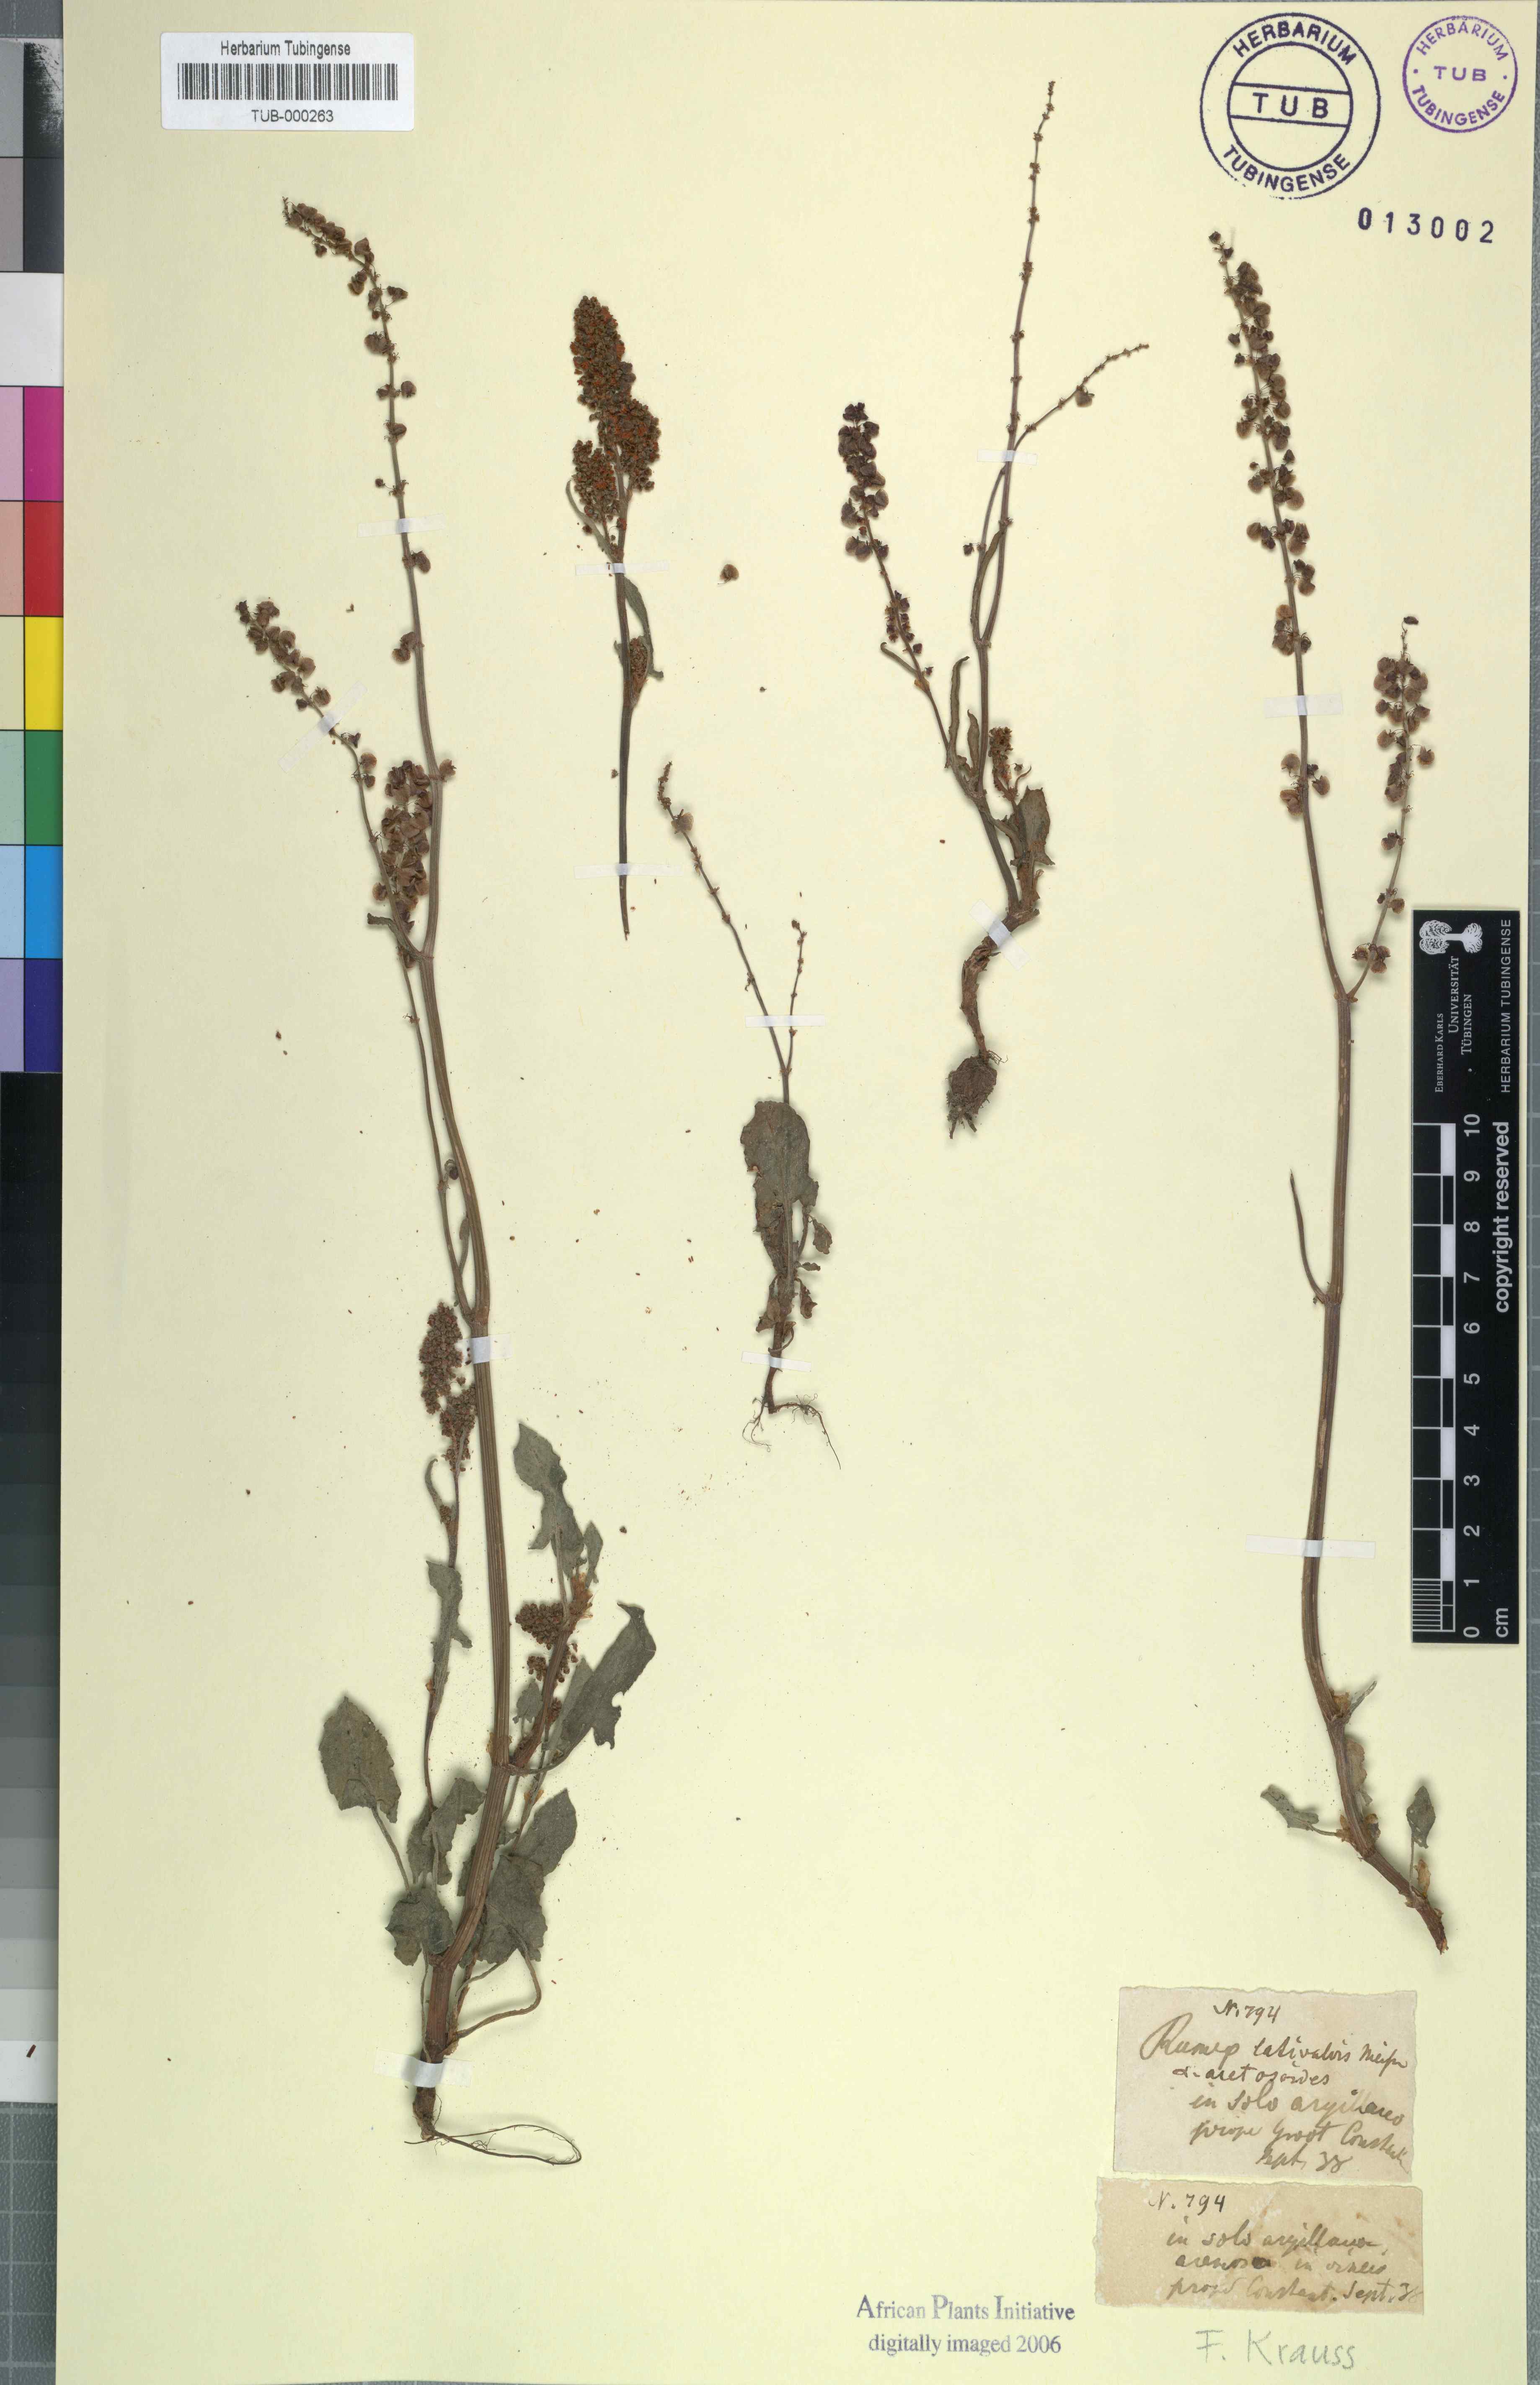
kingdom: Plantae
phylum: Tracheophyta
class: Magnoliopsida
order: Caryophyllales
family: Polygonaceae
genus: Rumex
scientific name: Rumex lativalvis
